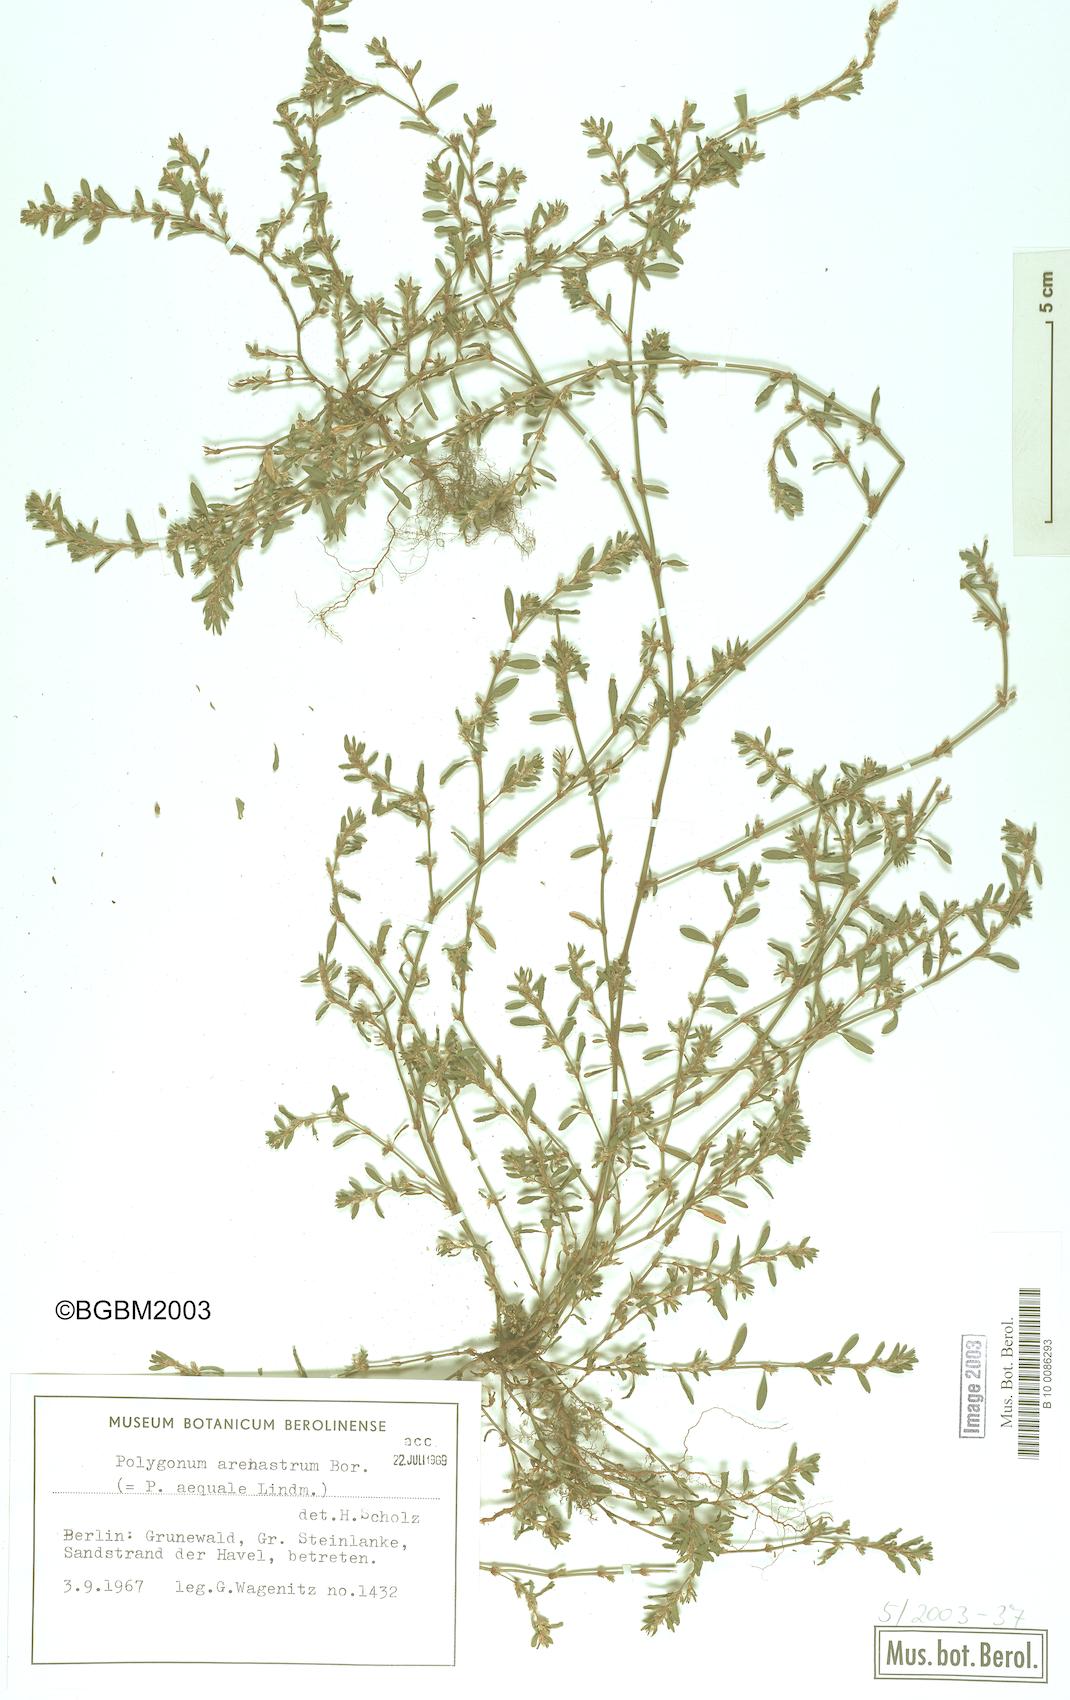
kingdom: Plantae
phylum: Tracheophyta
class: Magnoliopsida
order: Caryophyllales
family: Polygonaceae
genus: Polygonum
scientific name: Polygonum arenastrum
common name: Equal-leaved knotgrass
